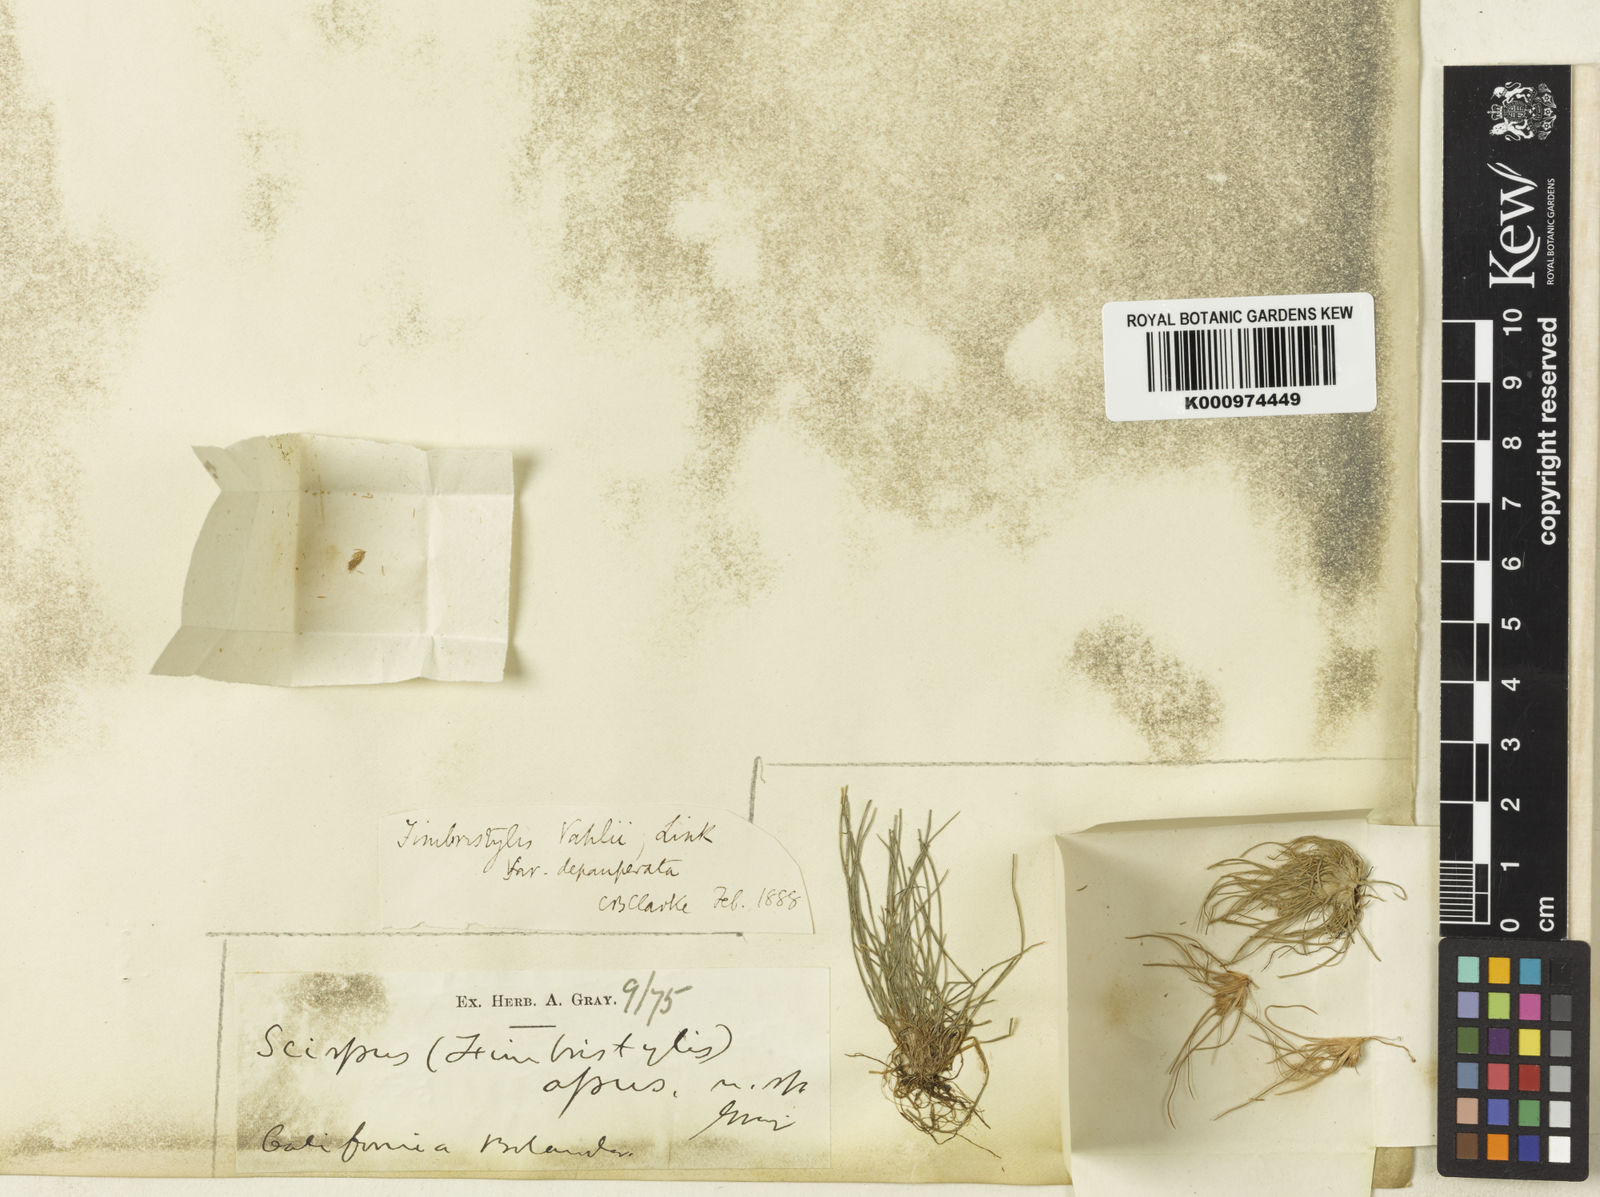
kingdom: Plantae
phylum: Tracheophyta
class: Liliopsida
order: Poales
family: Cyperaceae
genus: Fimbristylis
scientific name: Fimbristylis vahlii
